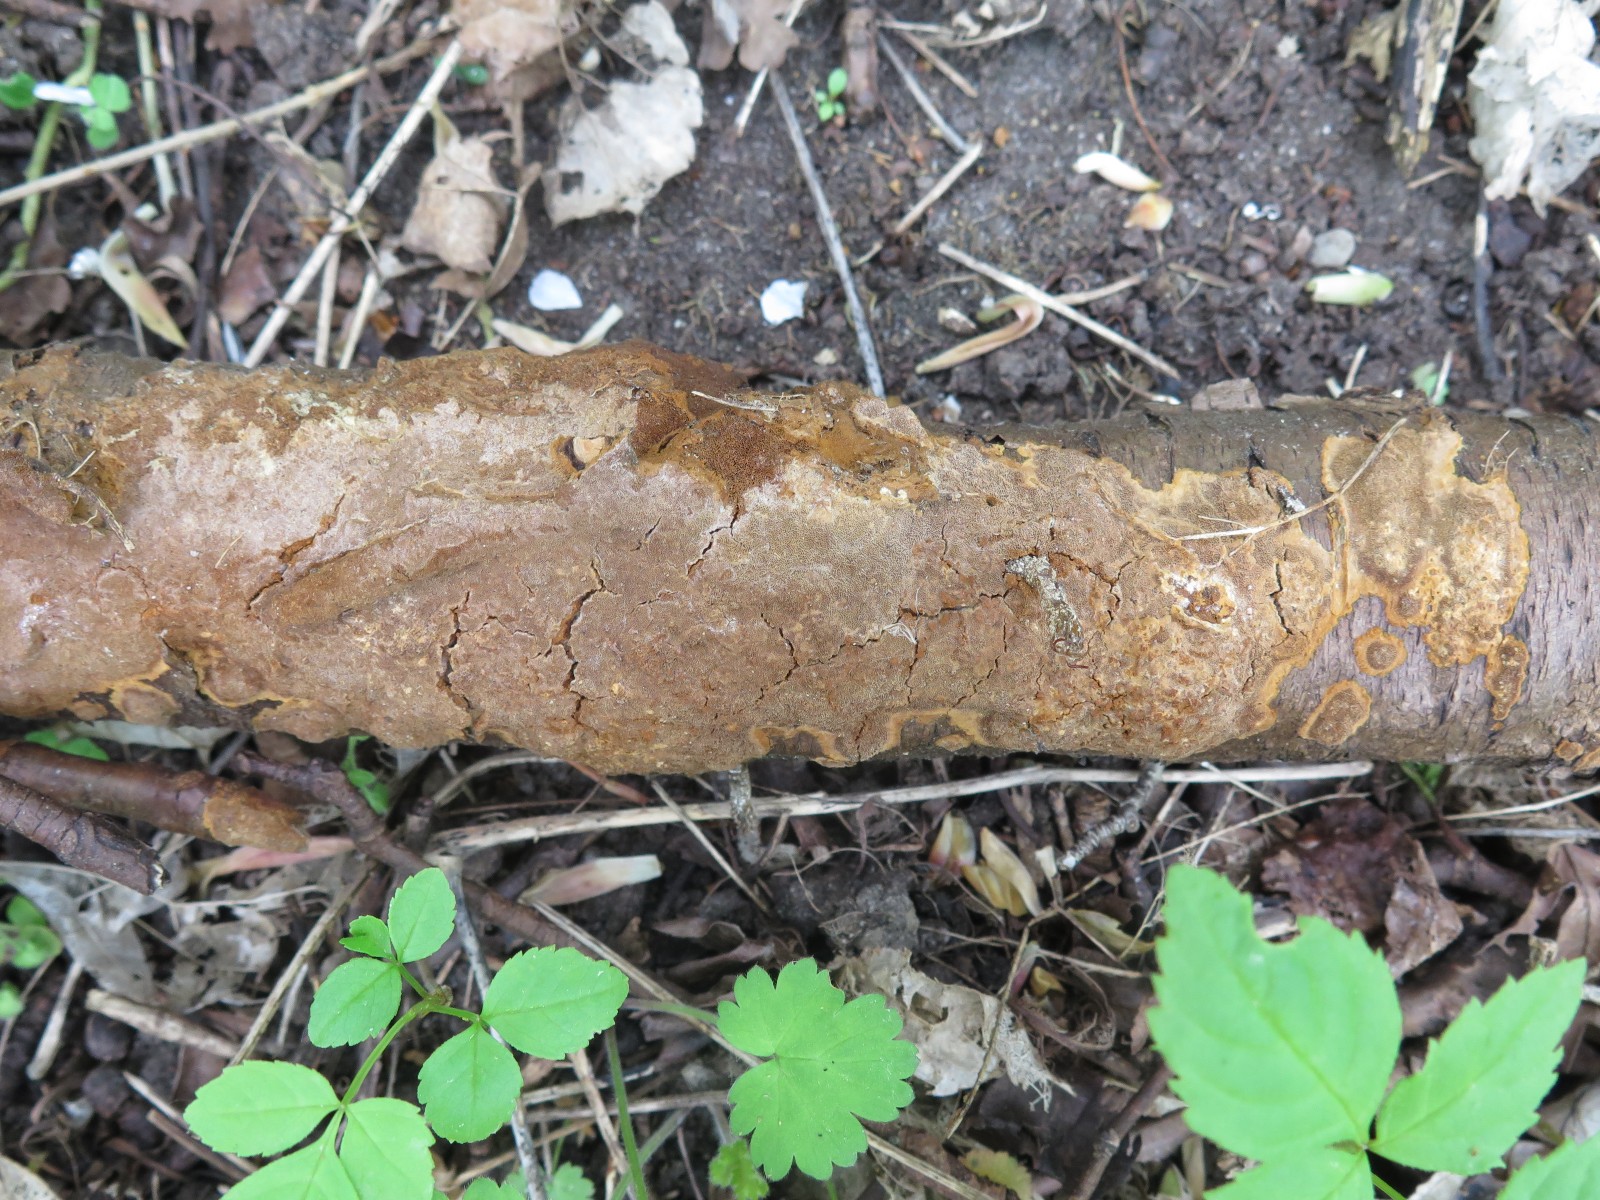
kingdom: Fungi
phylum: Basidiomycota
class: Agaricomycetes
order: Hymenochaetales
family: Hymenochaetaceae
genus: Fuscoporia
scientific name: Fuscoporia ferrea
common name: skorpe-ildporesvamp
